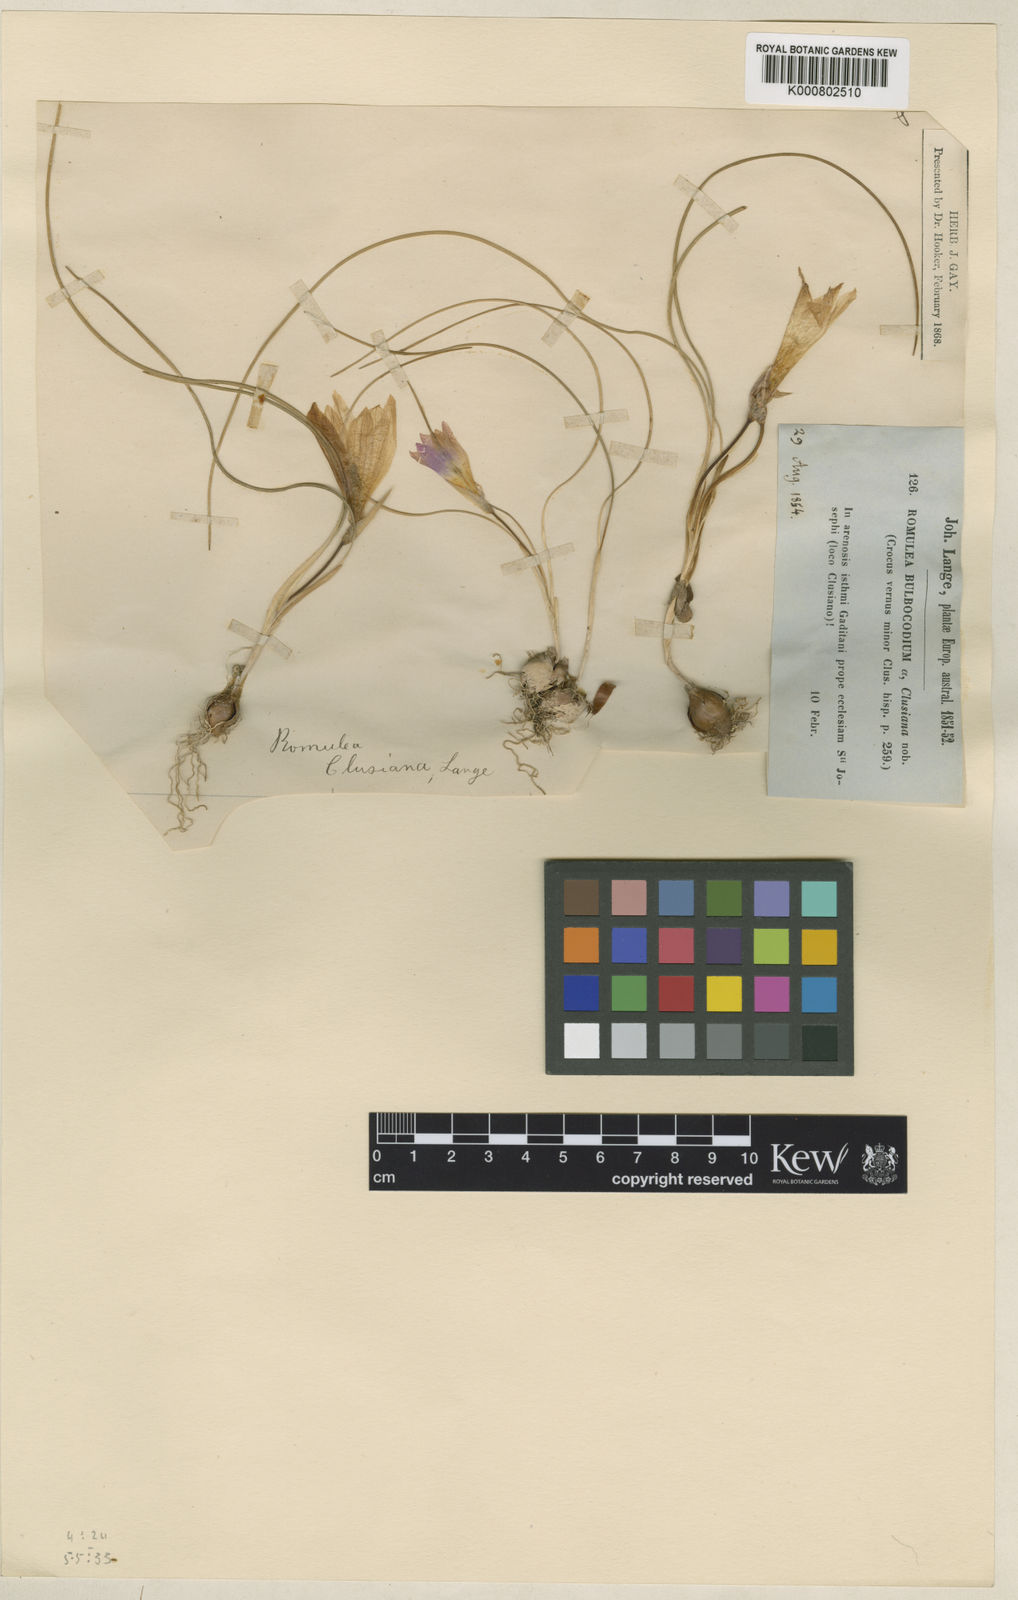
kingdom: Plantae
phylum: Tracheophyta
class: Liliopsida
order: Asparagales
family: Iridaceae
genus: Romulea
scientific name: Romulea rosea
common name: Oniongrass
